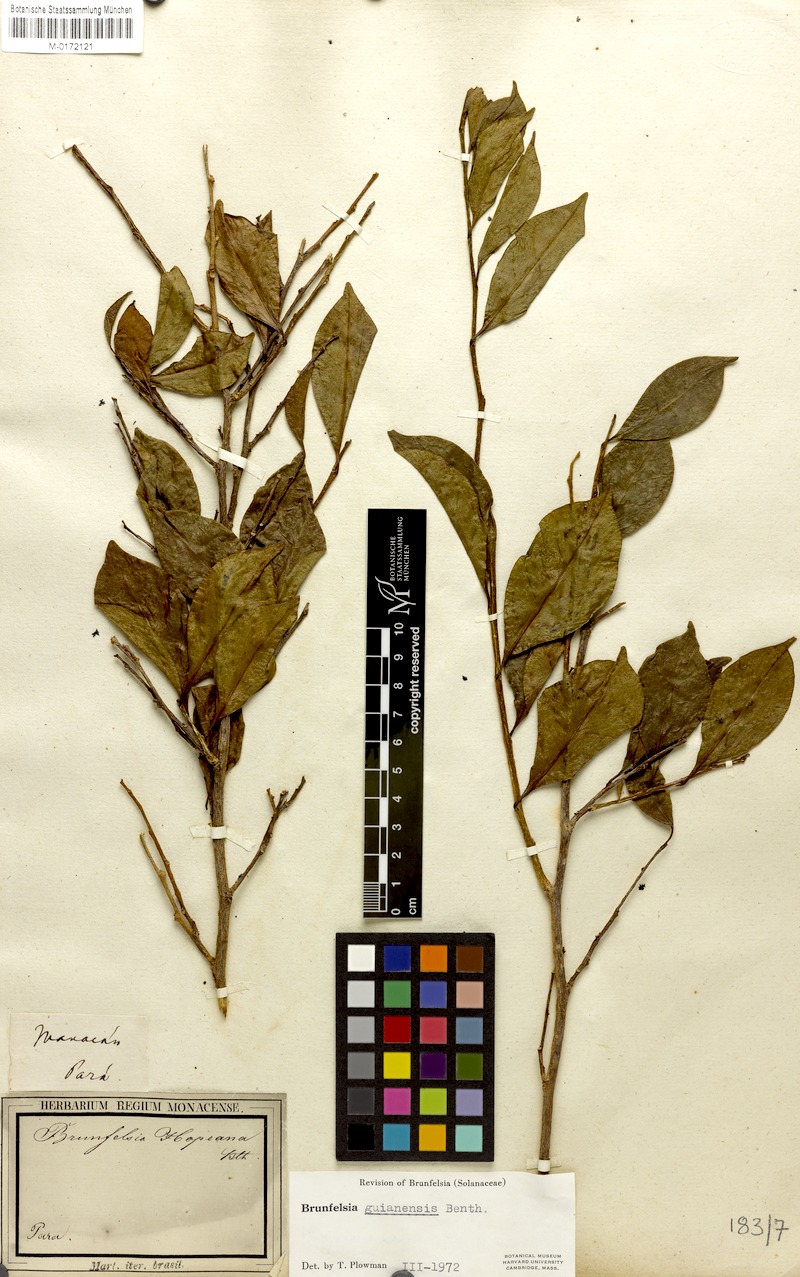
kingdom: Plantae
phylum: Tracheophyta
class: Magnoliopsida
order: Solanales
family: Solanaceae
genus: Brunfelsia
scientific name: Brunfelsia guianensis
